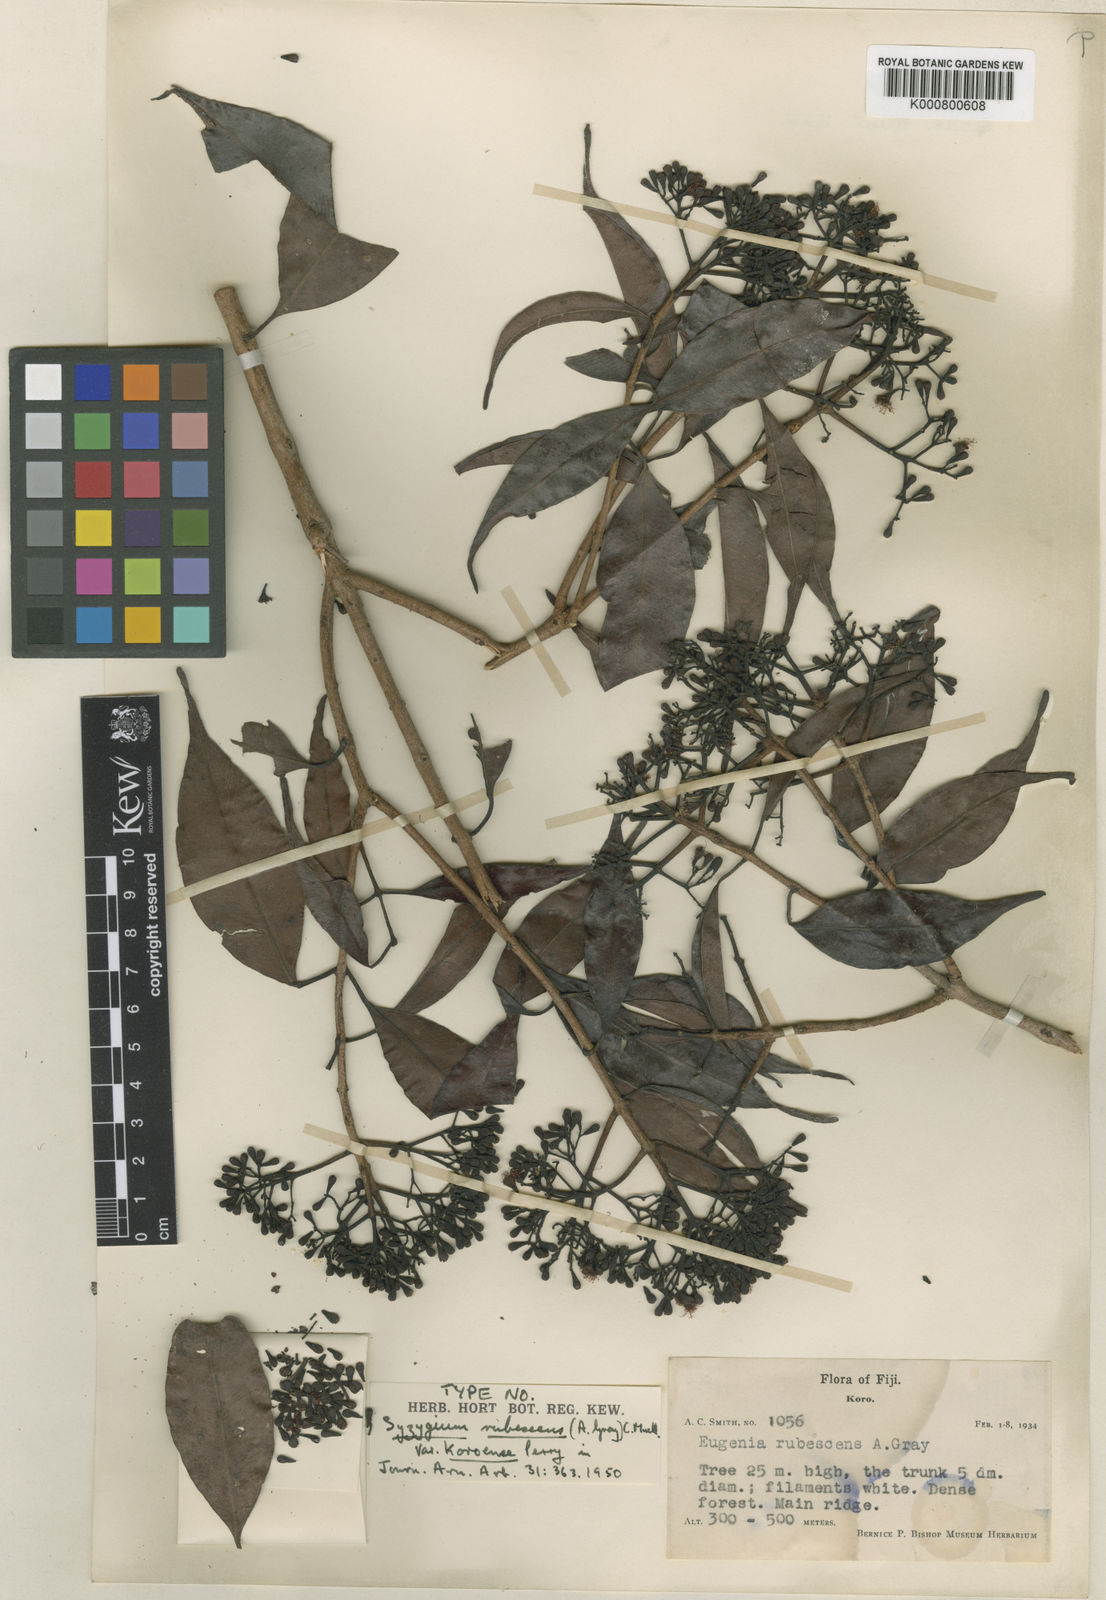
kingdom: Plantae
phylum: Tracheophyta
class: Magnoliopsida
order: Myrtales
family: Myrtaceae
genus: Syzygium
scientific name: Syzygium
